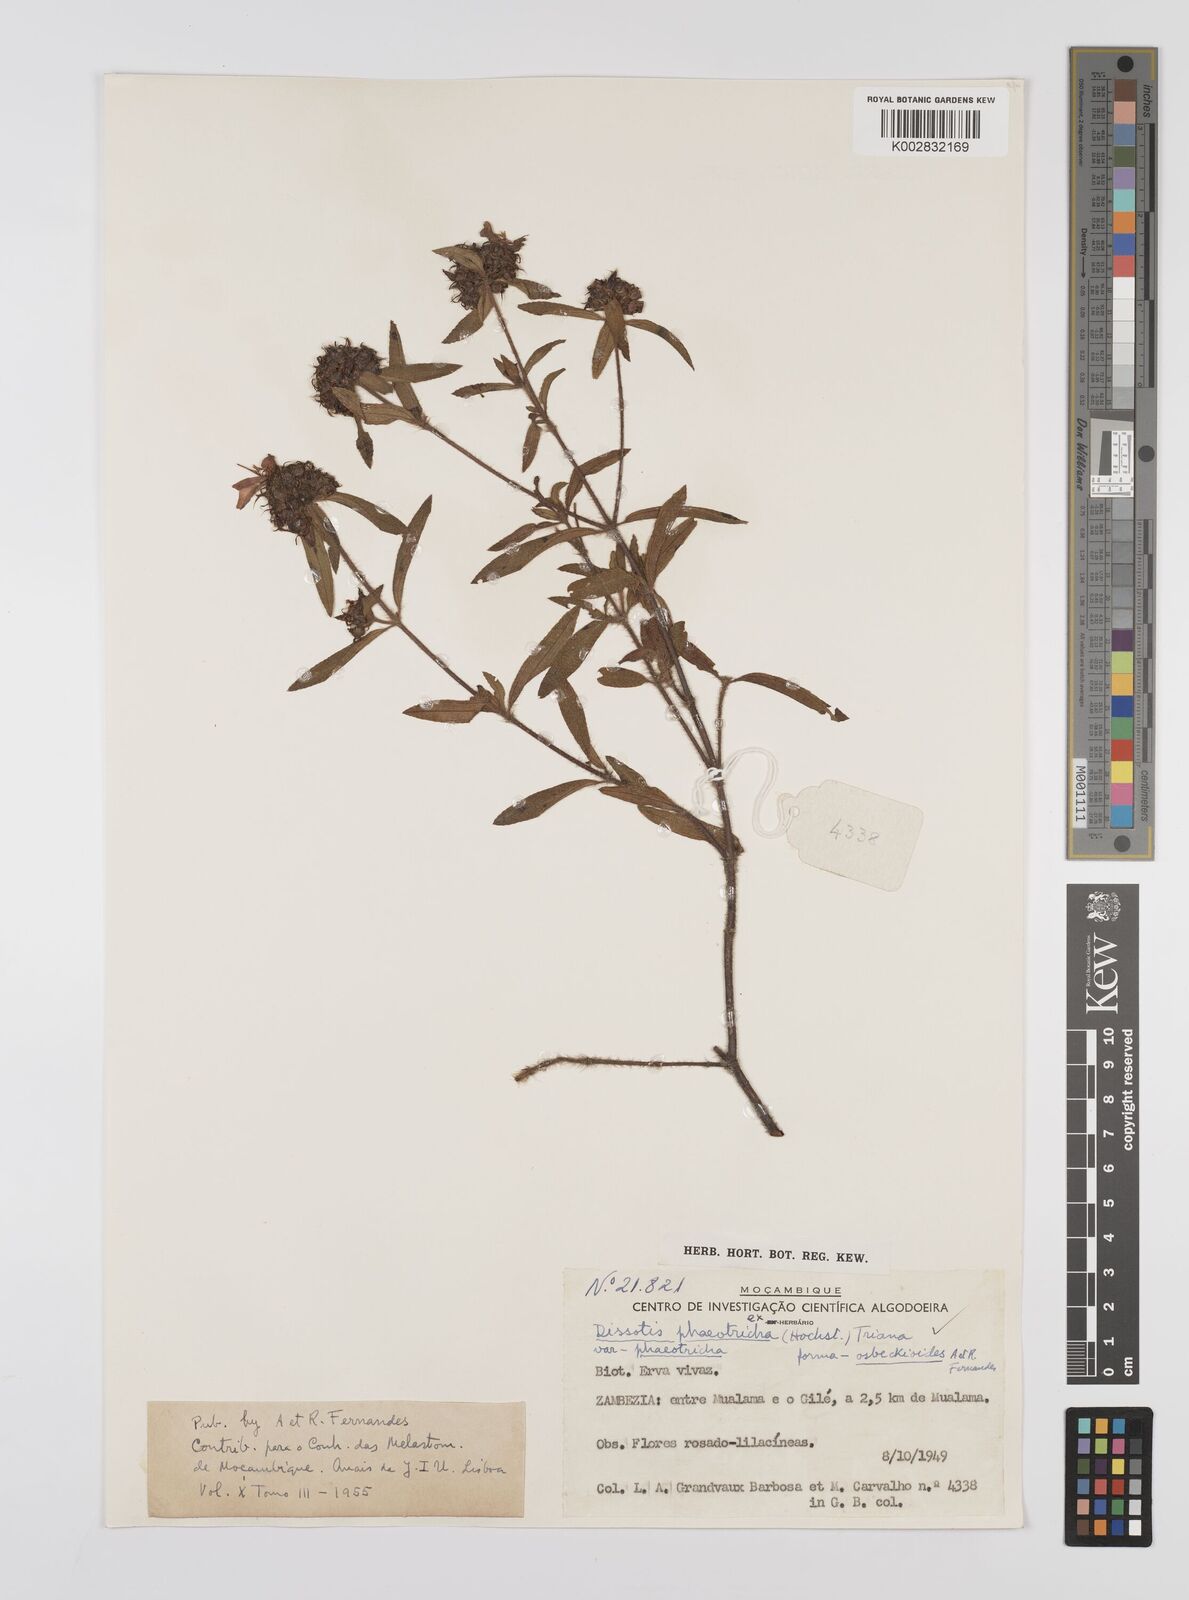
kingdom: Plantae
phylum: Tracheophyta
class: Magnoliopsida
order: Myrtales
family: Melastomataceae
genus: Antherotoma
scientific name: Antherotoma phaeotricha
